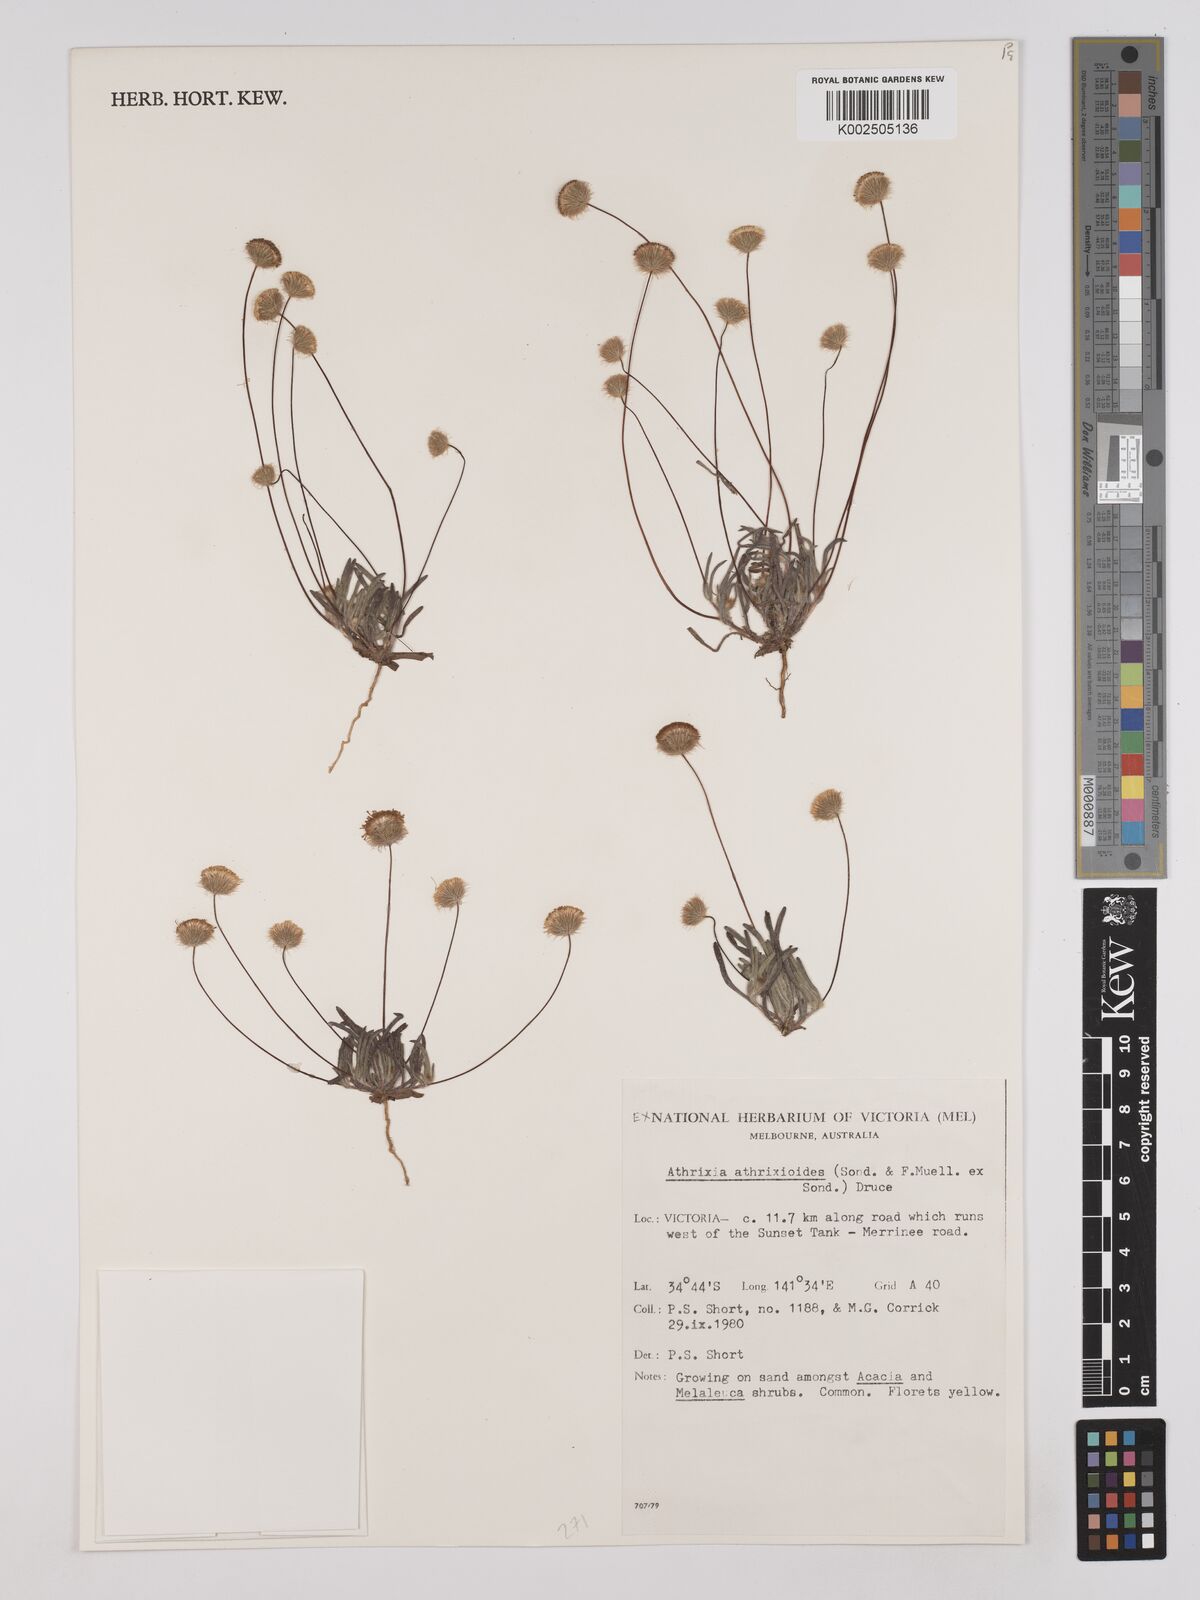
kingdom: Plantae
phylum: Tracheophyta
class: Magnoliopsida
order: Asterales
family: Asteraceae
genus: Asteridea
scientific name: Asteridea athrixioides
